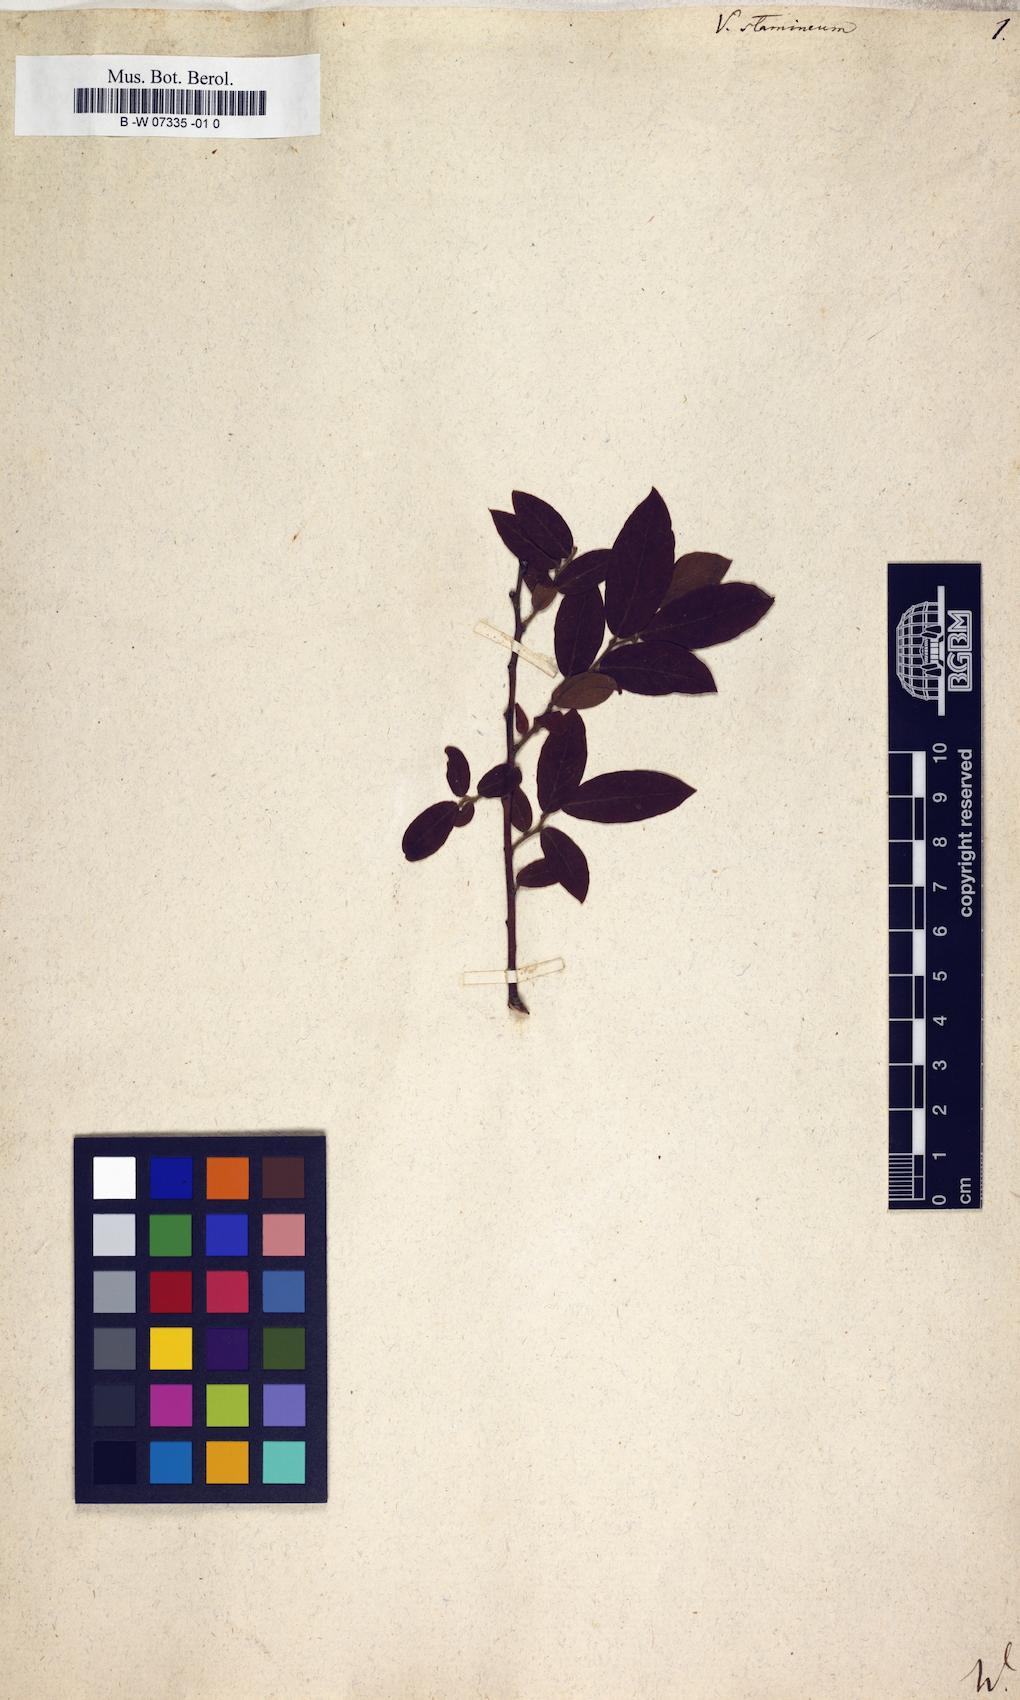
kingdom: Plantae
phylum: Tracheophyta
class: Magnoliopsida
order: Ericales
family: Ericaceae
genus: Vaccinium
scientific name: Vaccinium stamineum
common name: Deerberry
